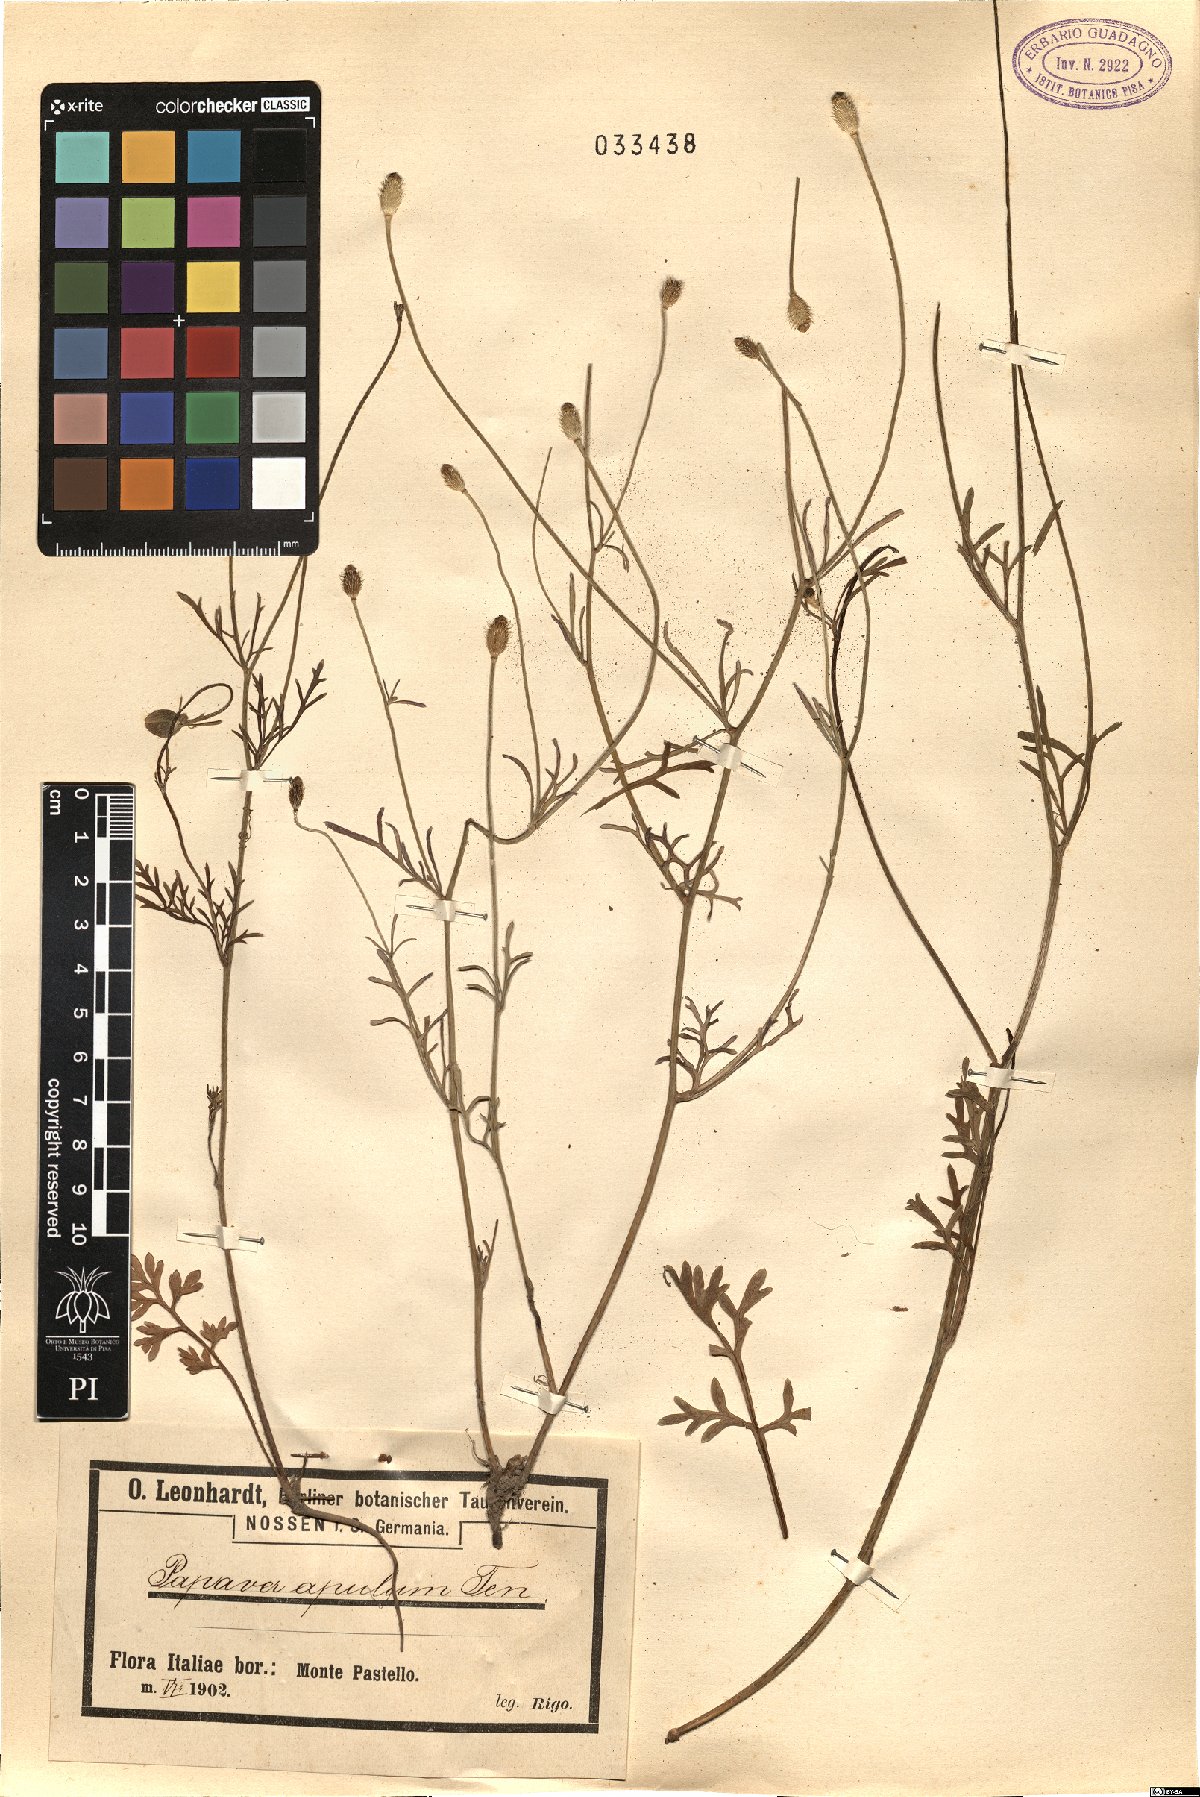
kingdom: Plantae
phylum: Tracheophyta
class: Magnoliopsida
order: Ranunculales
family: Papaveraceae
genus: Roemeria
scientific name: Roemeria apula
